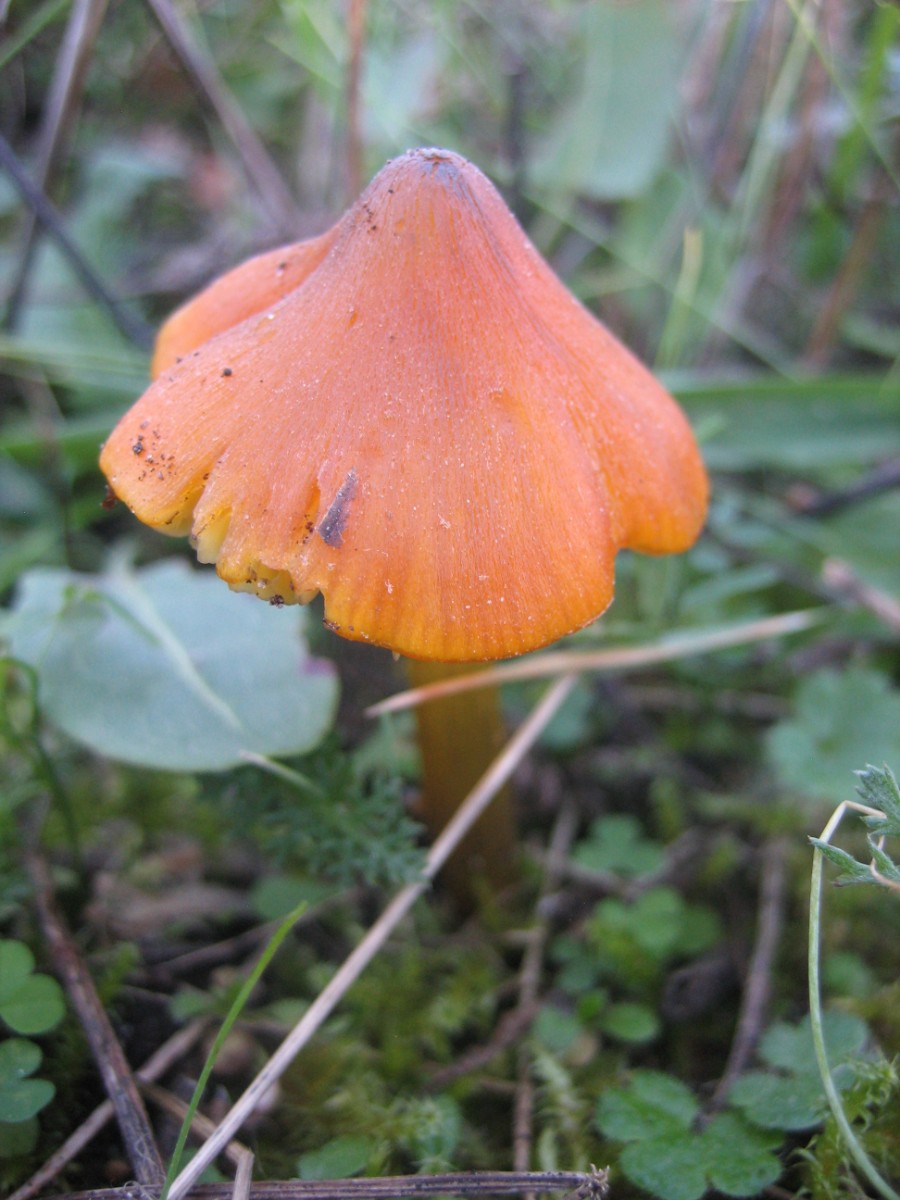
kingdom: Fungi
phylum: Basidiomycota
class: Agaricomycetes
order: Agaricales
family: Hygrophoraceae
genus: Hygrocybe
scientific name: Hygrocybe conica
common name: kegle-vokshat
